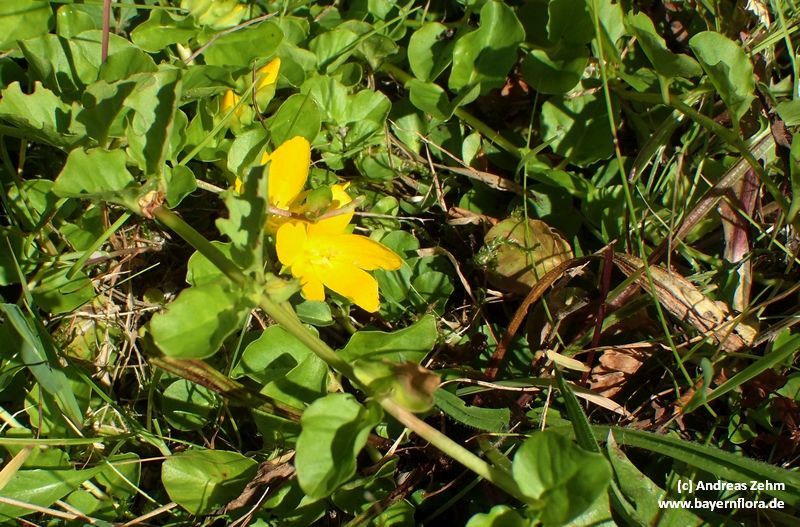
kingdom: Plantae
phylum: Tracheophyta
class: Magnoliopsida
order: Ericales
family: Primulaceae
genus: Lysimachia
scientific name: Lysimachia nummularia
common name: Moneywort
